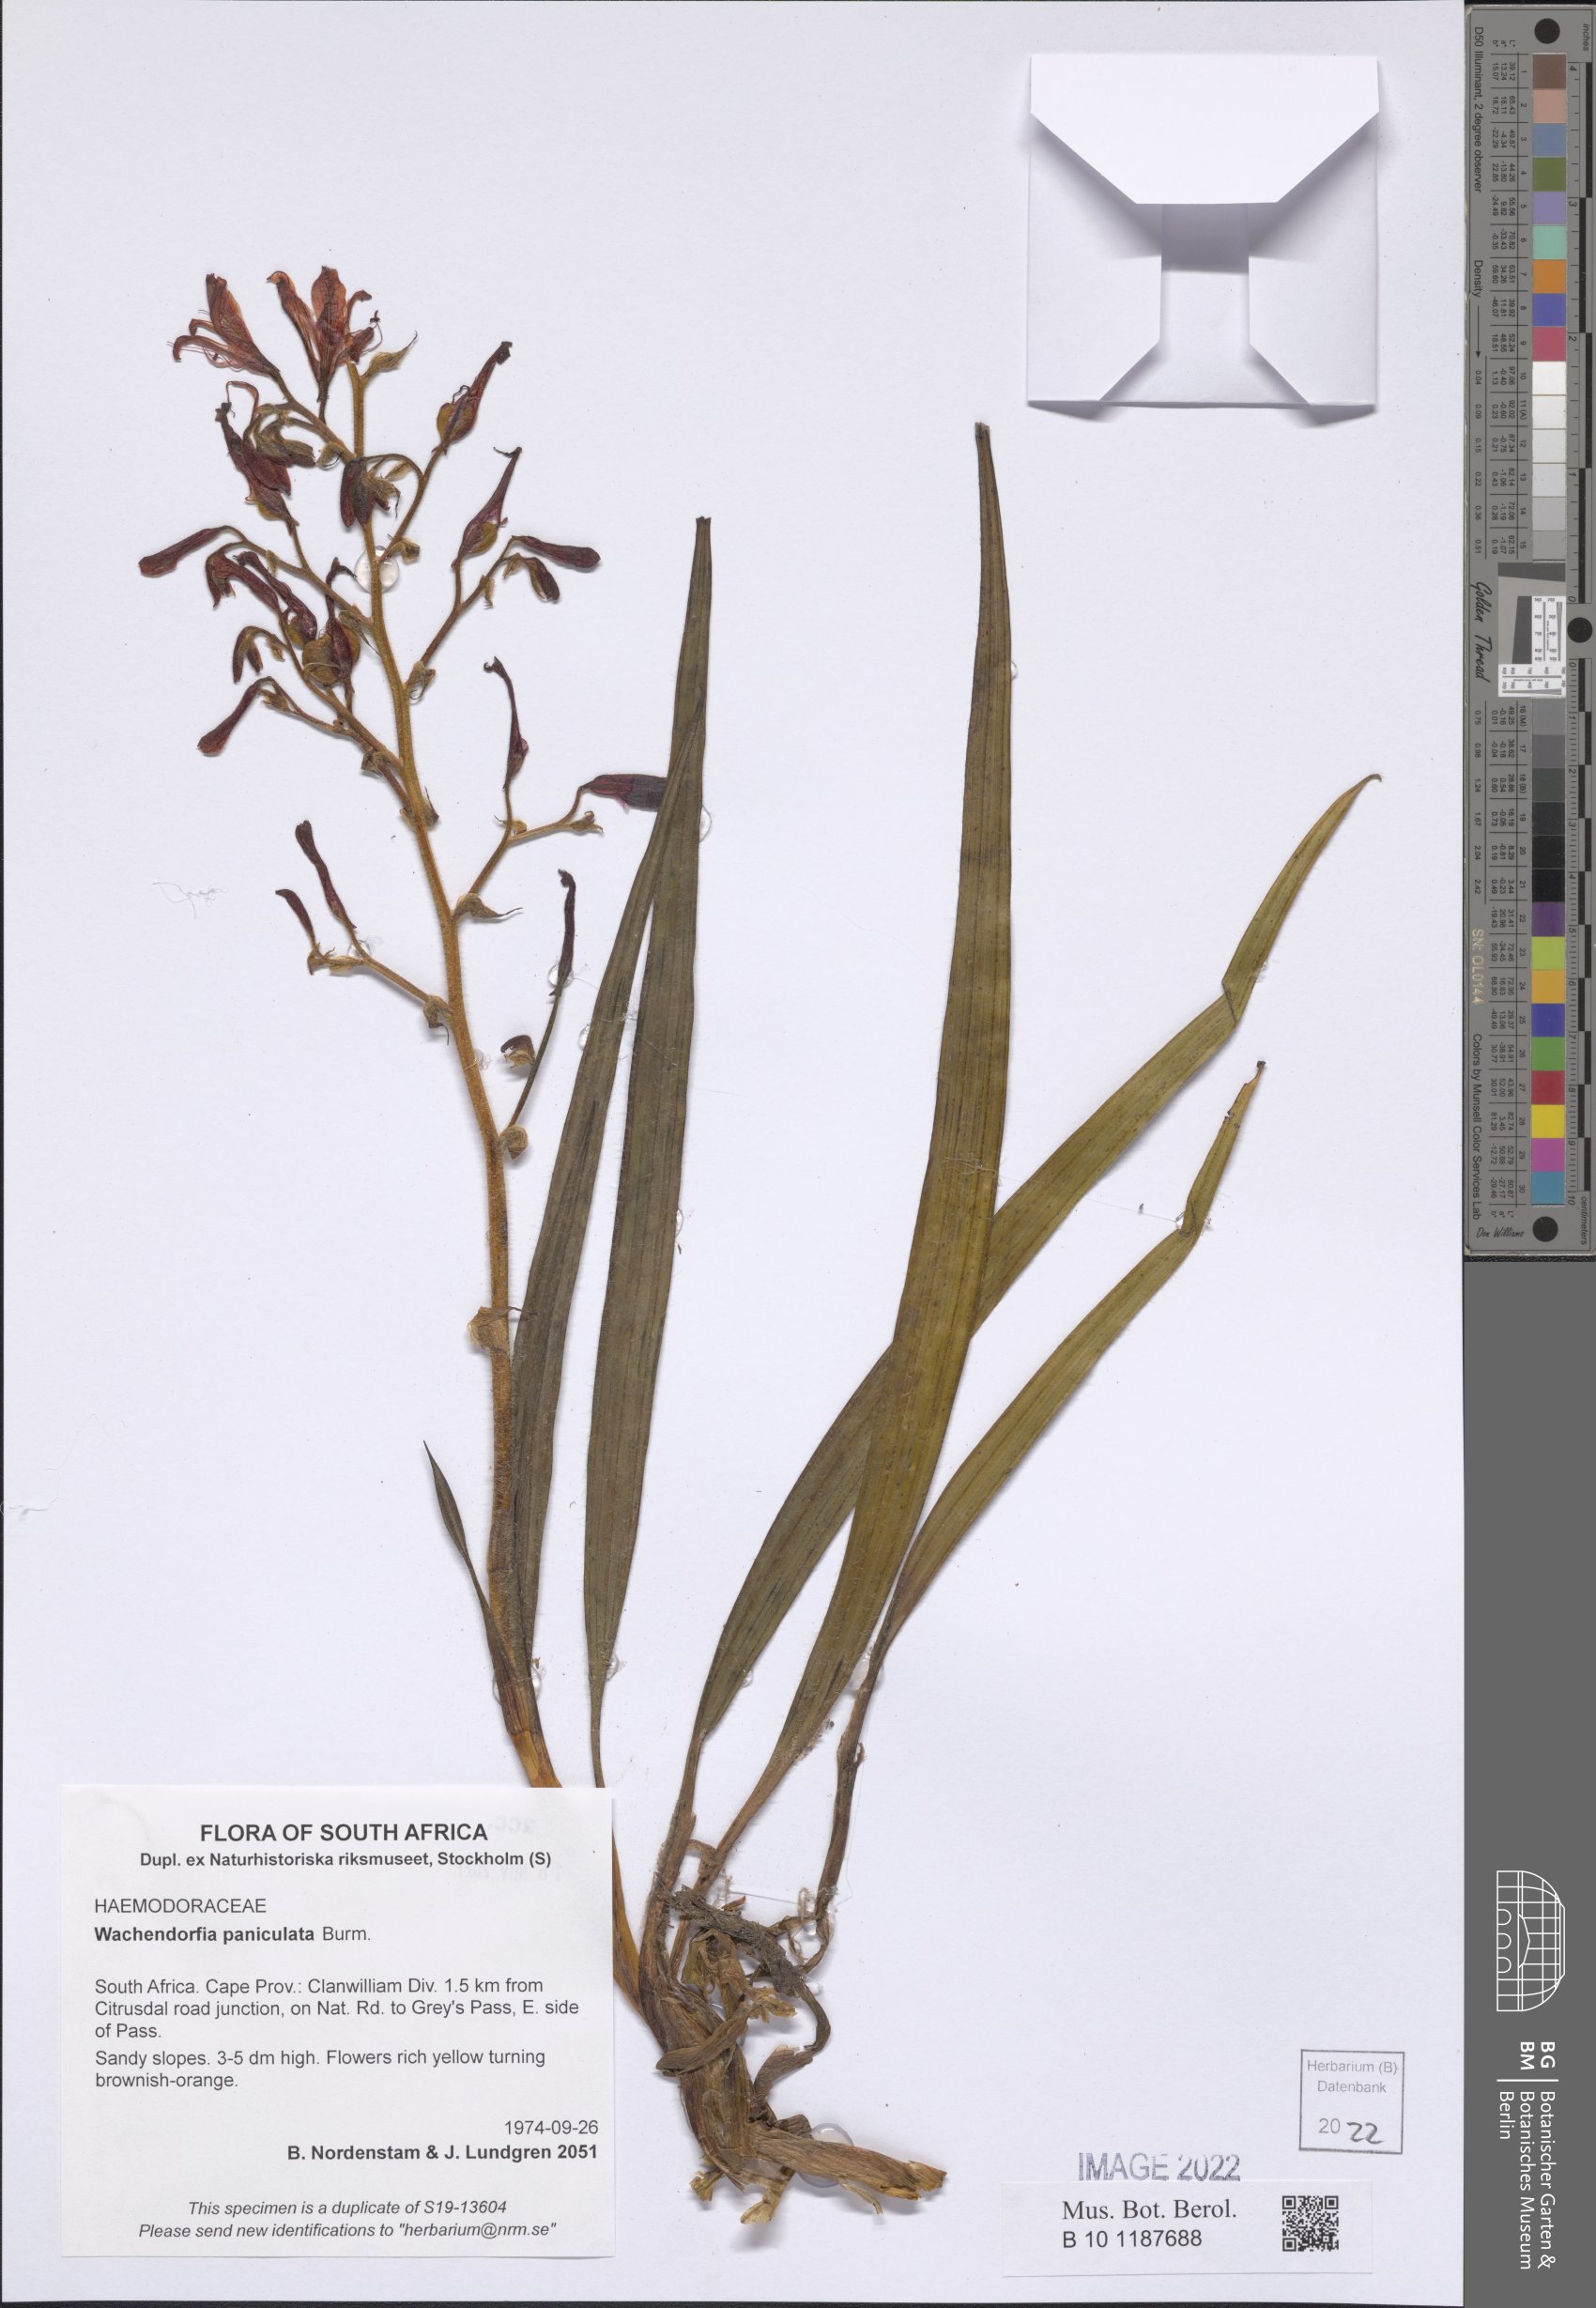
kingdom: Plantae
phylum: Tracheophyta
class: Liliopsida
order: Commelinales
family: Haemodoraceae
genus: Wachendorfia
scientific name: Wachendorfia paniculata
